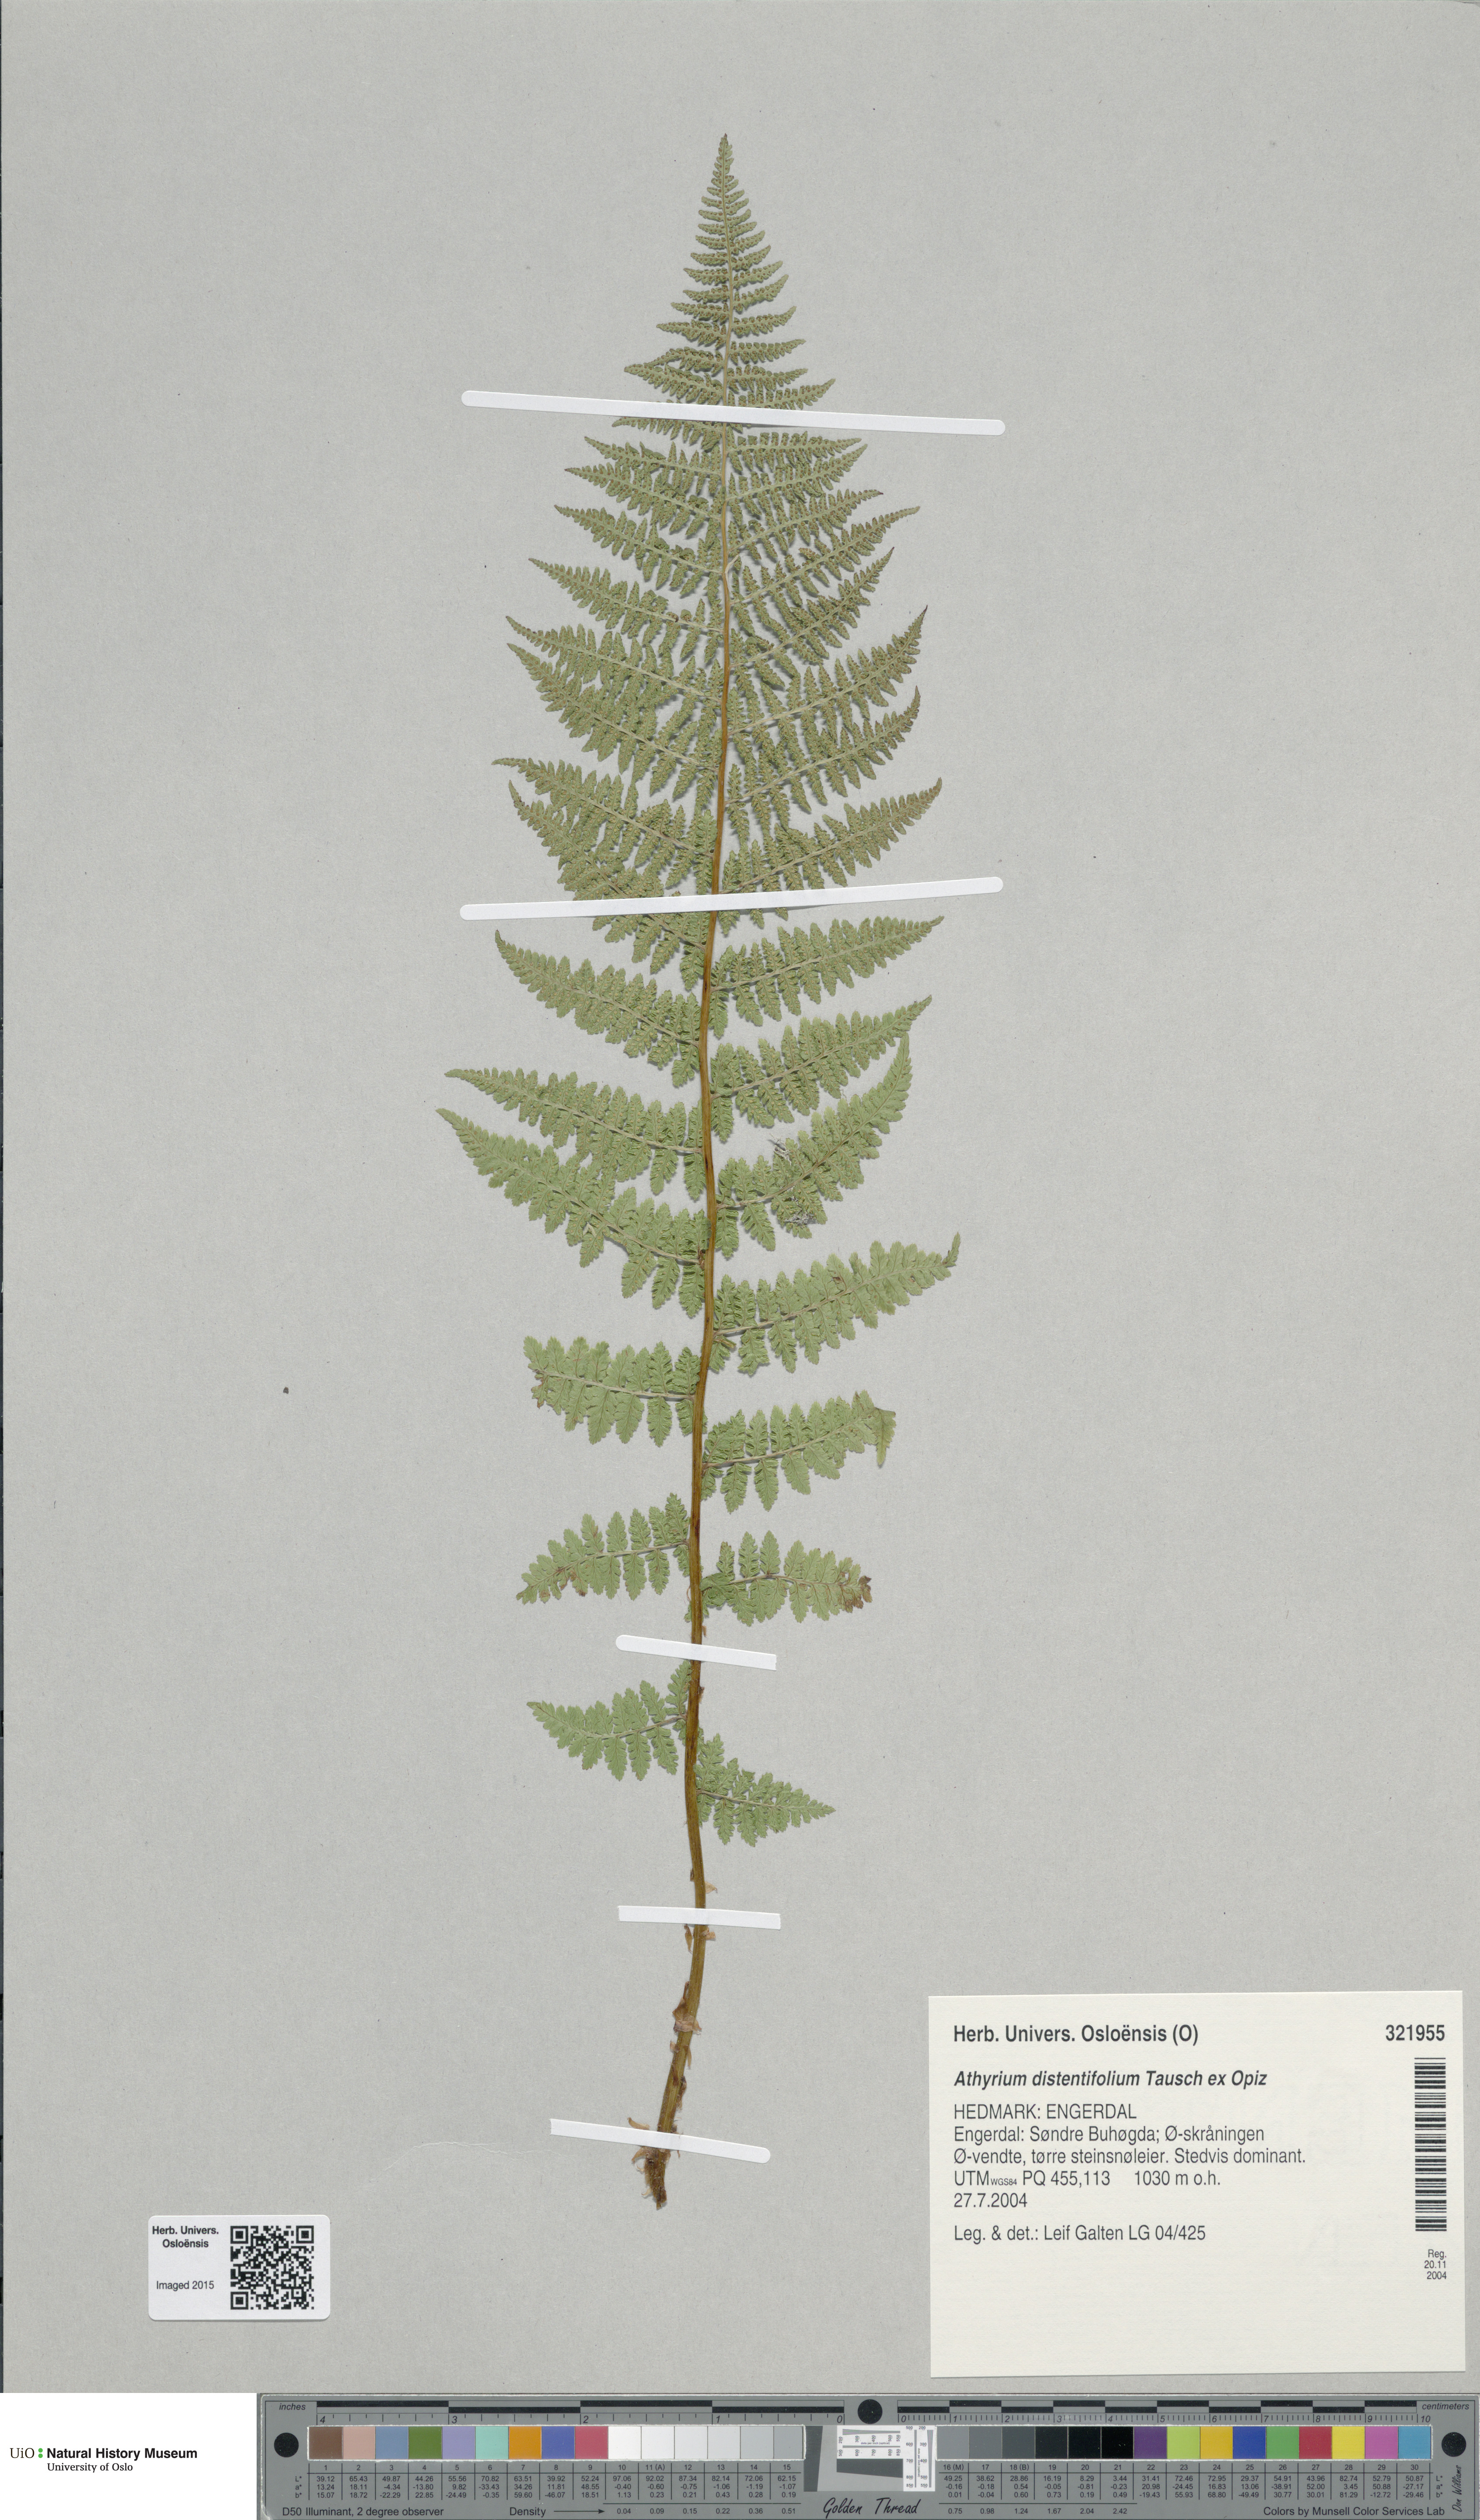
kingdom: Plantae
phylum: Tracheophyta
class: Polypodiopsida
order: Polypodiales
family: Athyriaceae
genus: Pseudathyrium
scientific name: Pseudathyrium alpestre
